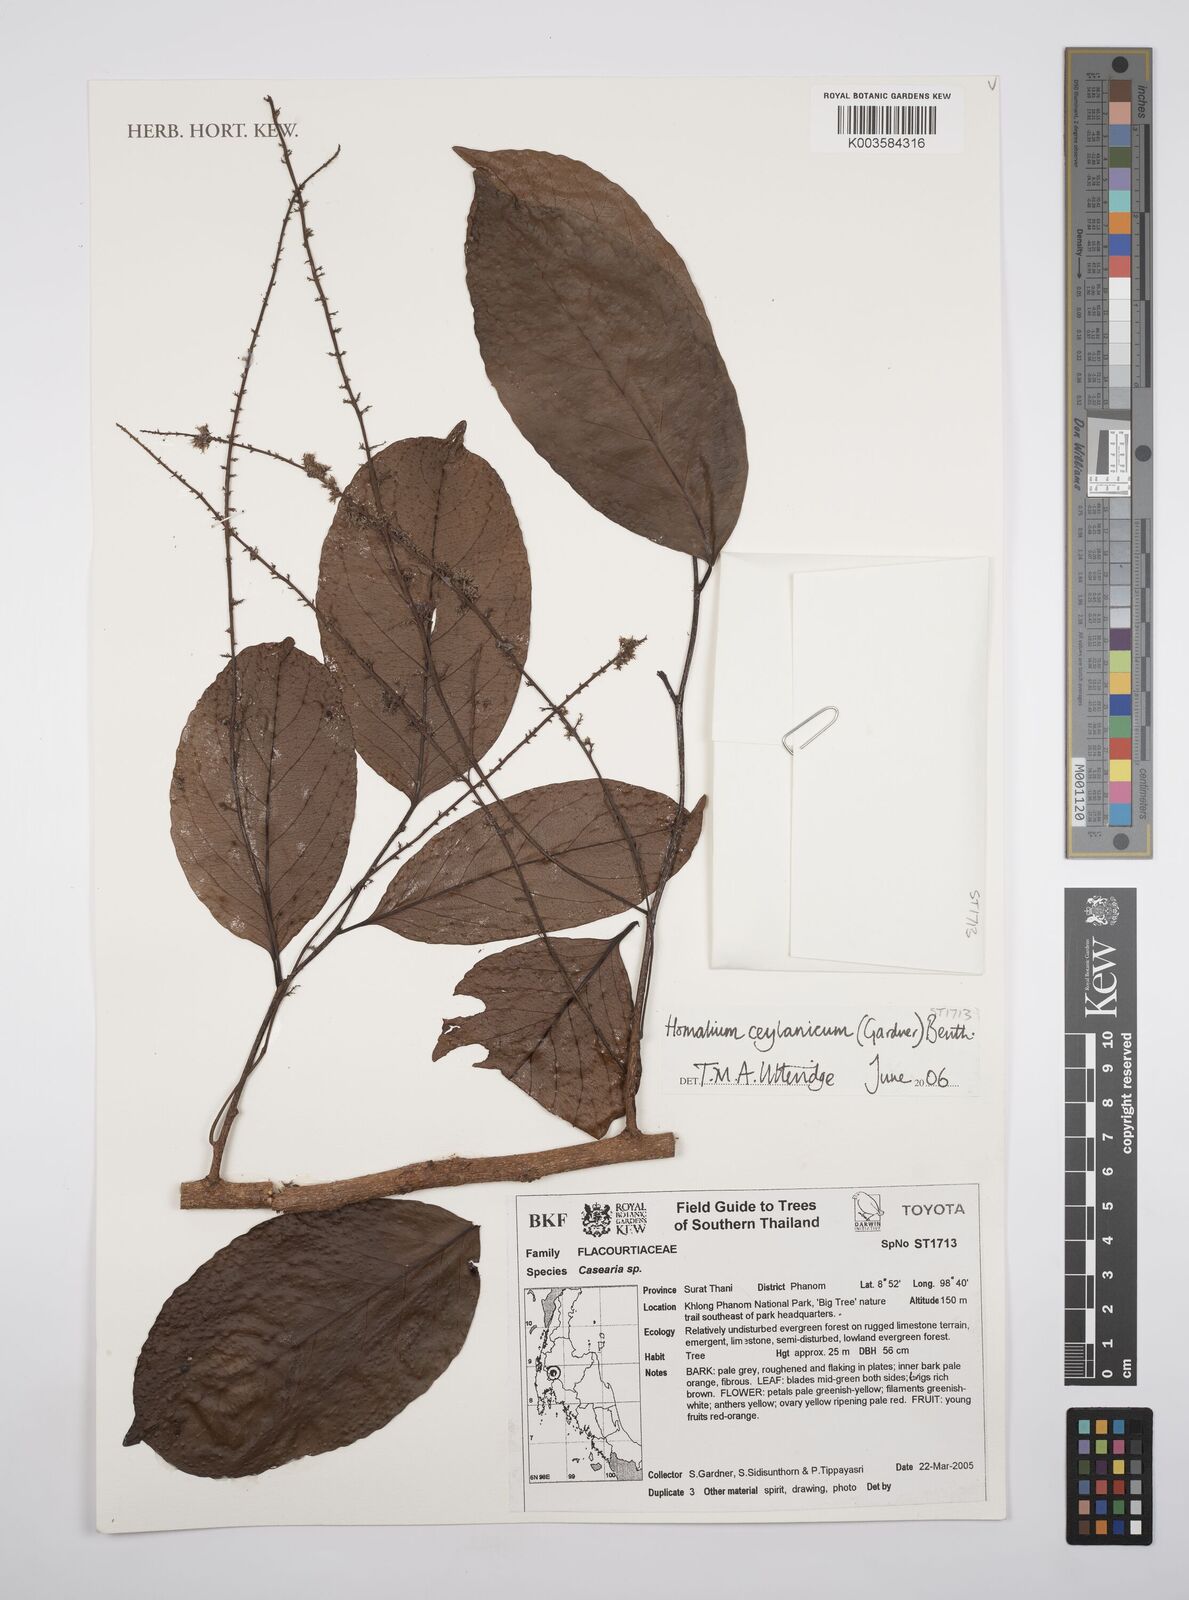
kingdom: Plantae
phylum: Tracheophyta
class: Magnoliopsida
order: Malpighiales
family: Salicaceae
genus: Homalium
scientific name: Homalium ceylanicum
